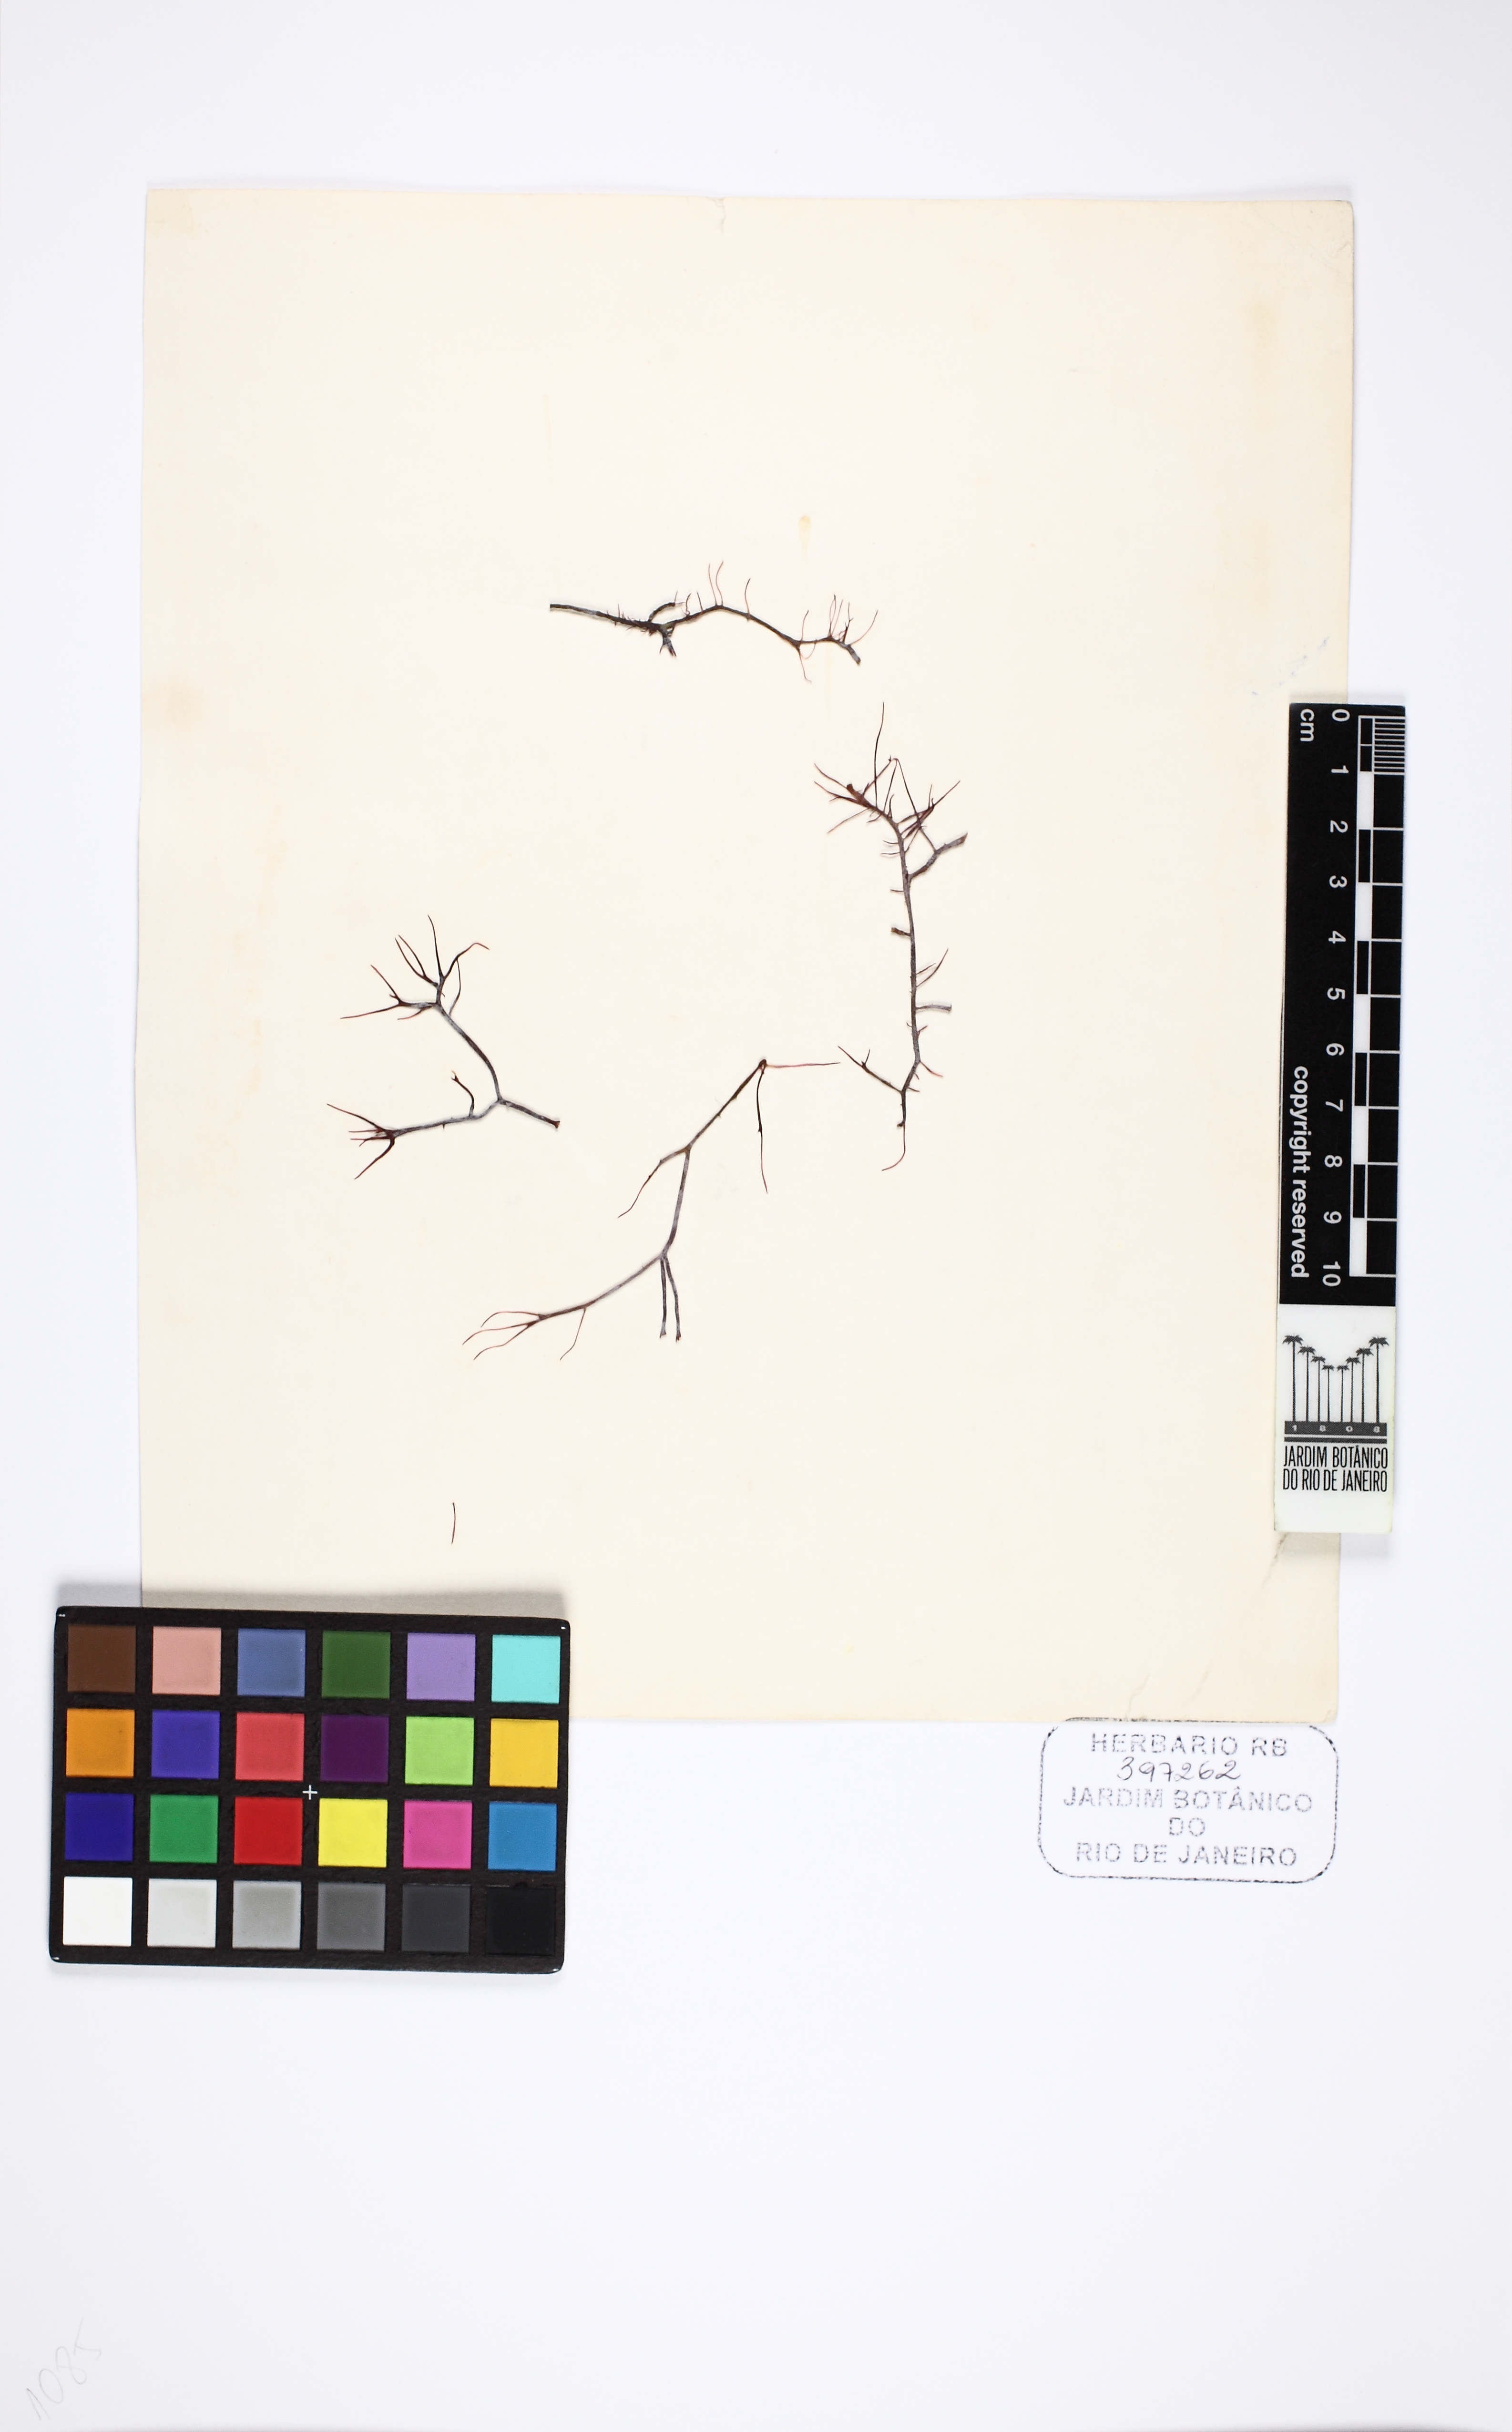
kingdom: Plantae
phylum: Rhodophyta
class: Florideophyceae
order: Gracilariales
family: Gracilariaceae
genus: Crassiphycus
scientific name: Crassiphycus caudatus
